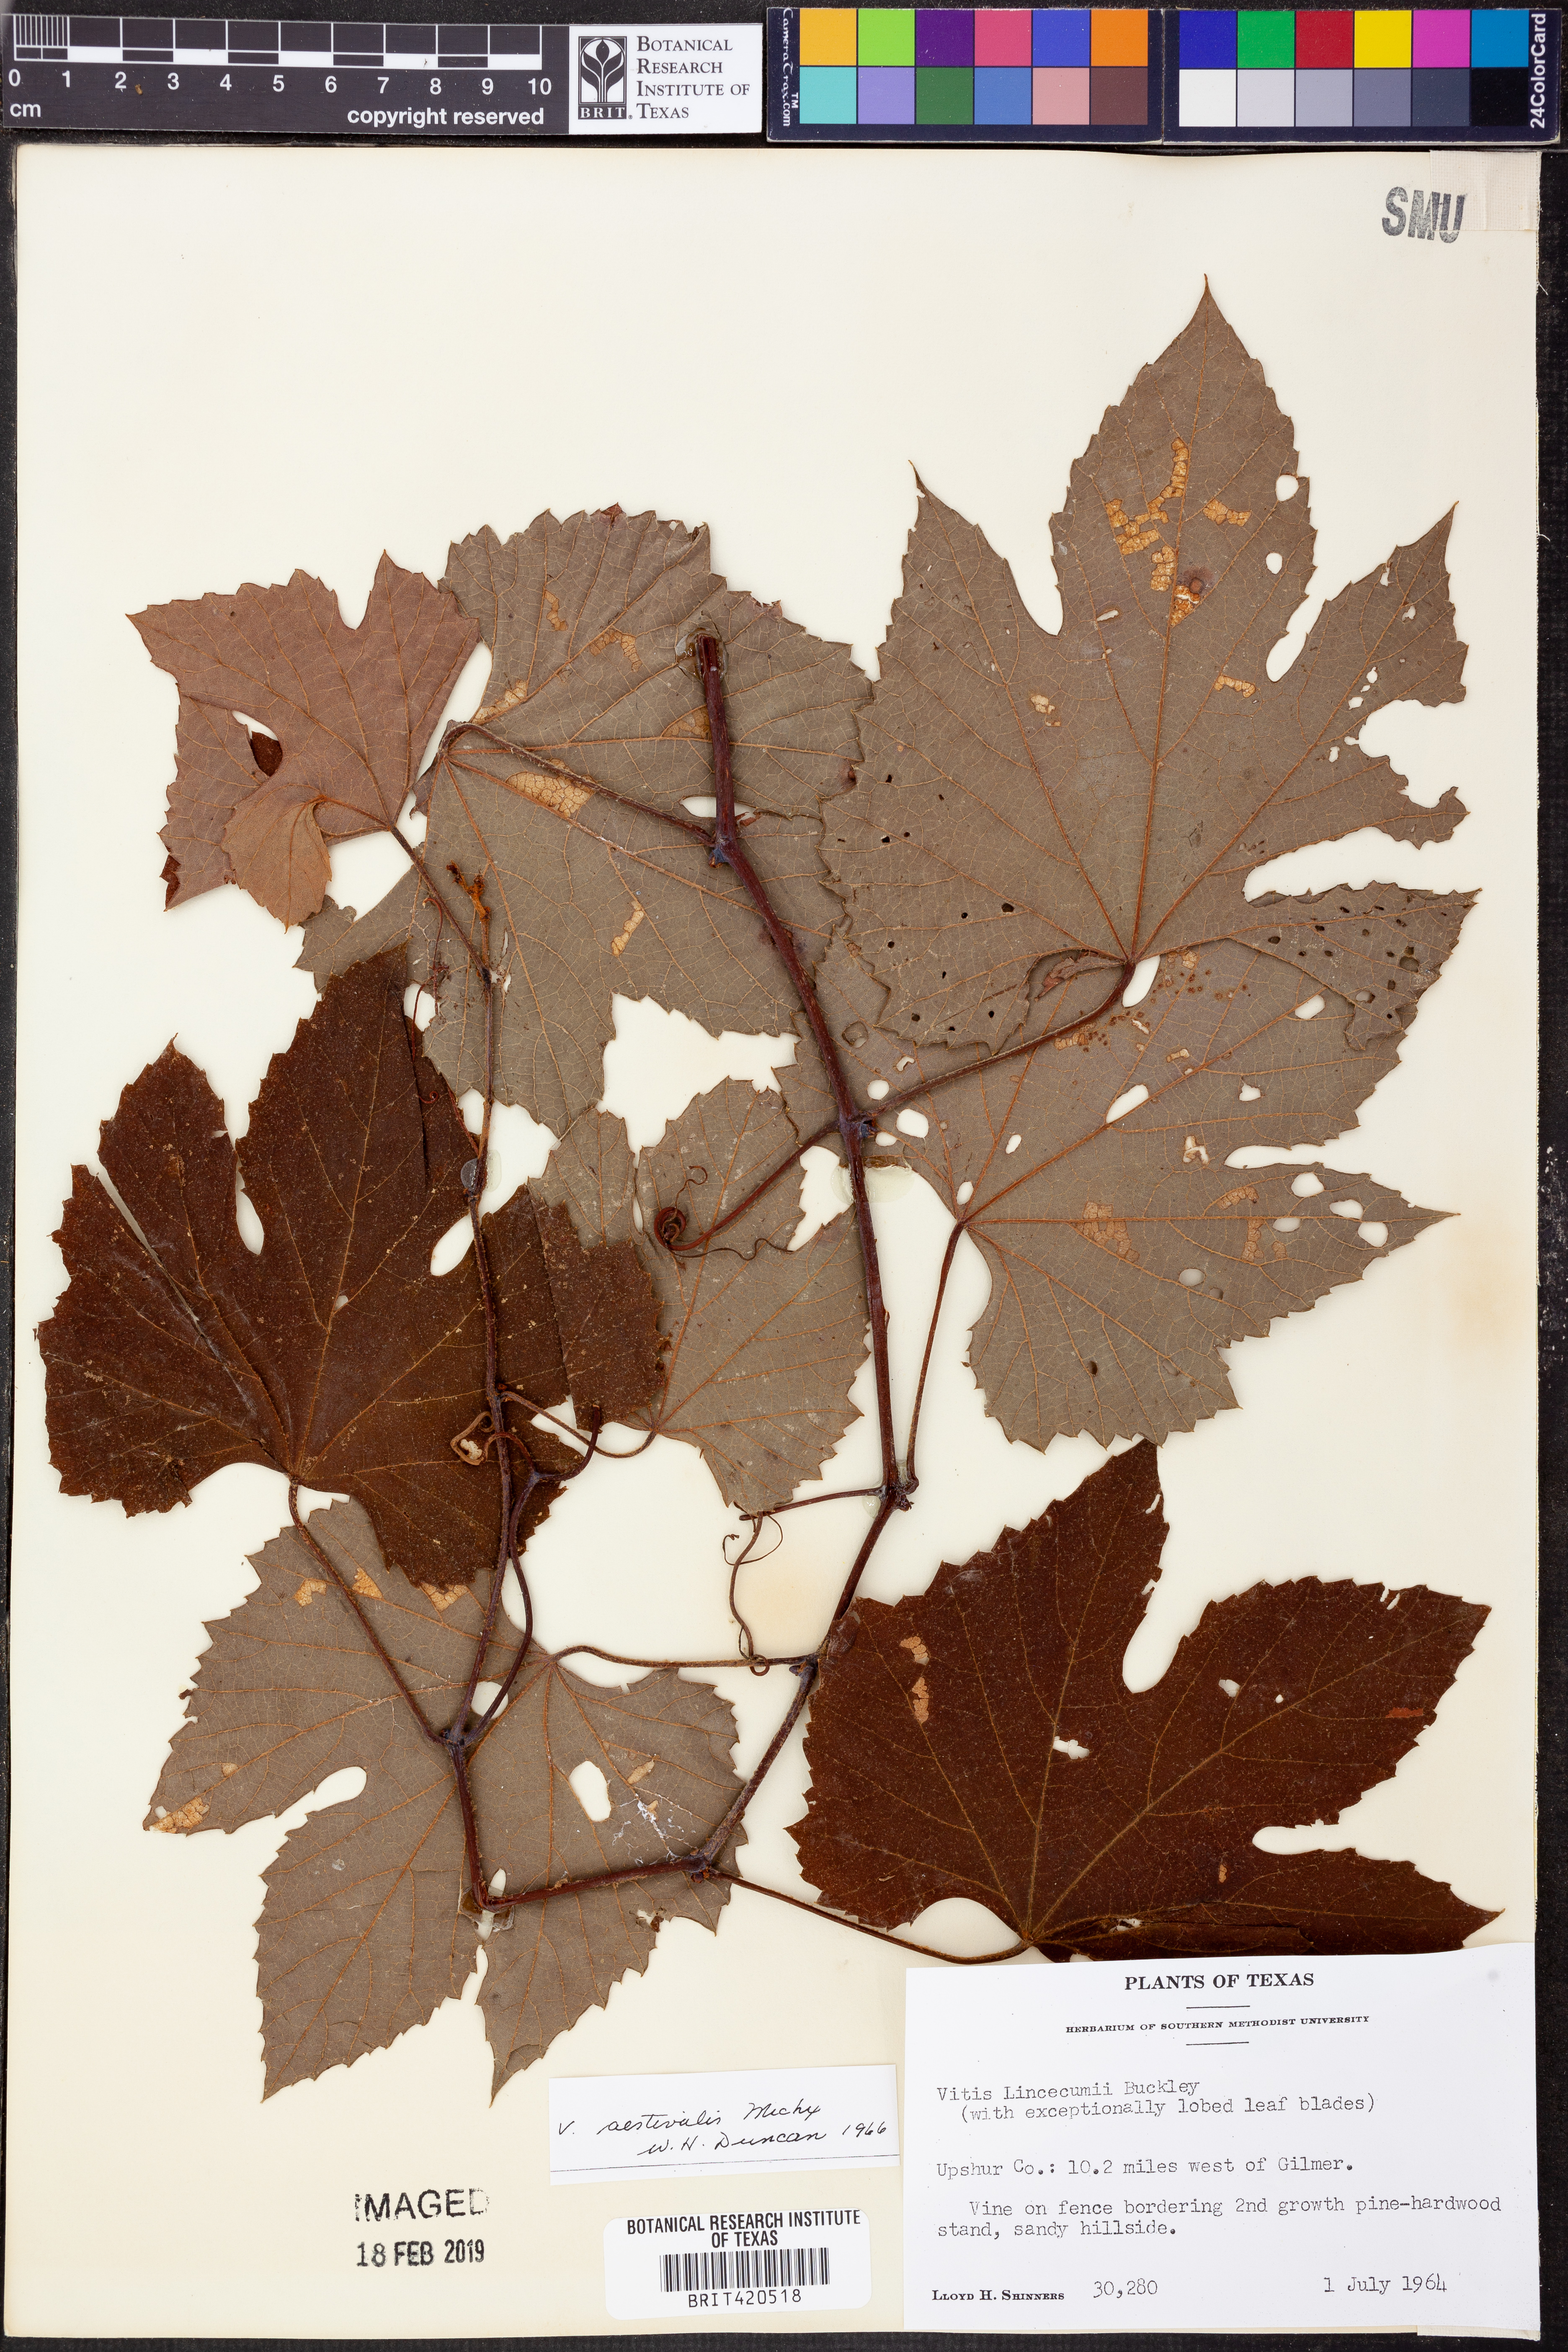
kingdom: Plantae
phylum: Tracheophyta
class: Magnoliopsida
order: Vitales
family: Vitaceae
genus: Vitis
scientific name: Vitis aestivalis
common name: Pigeon grape
